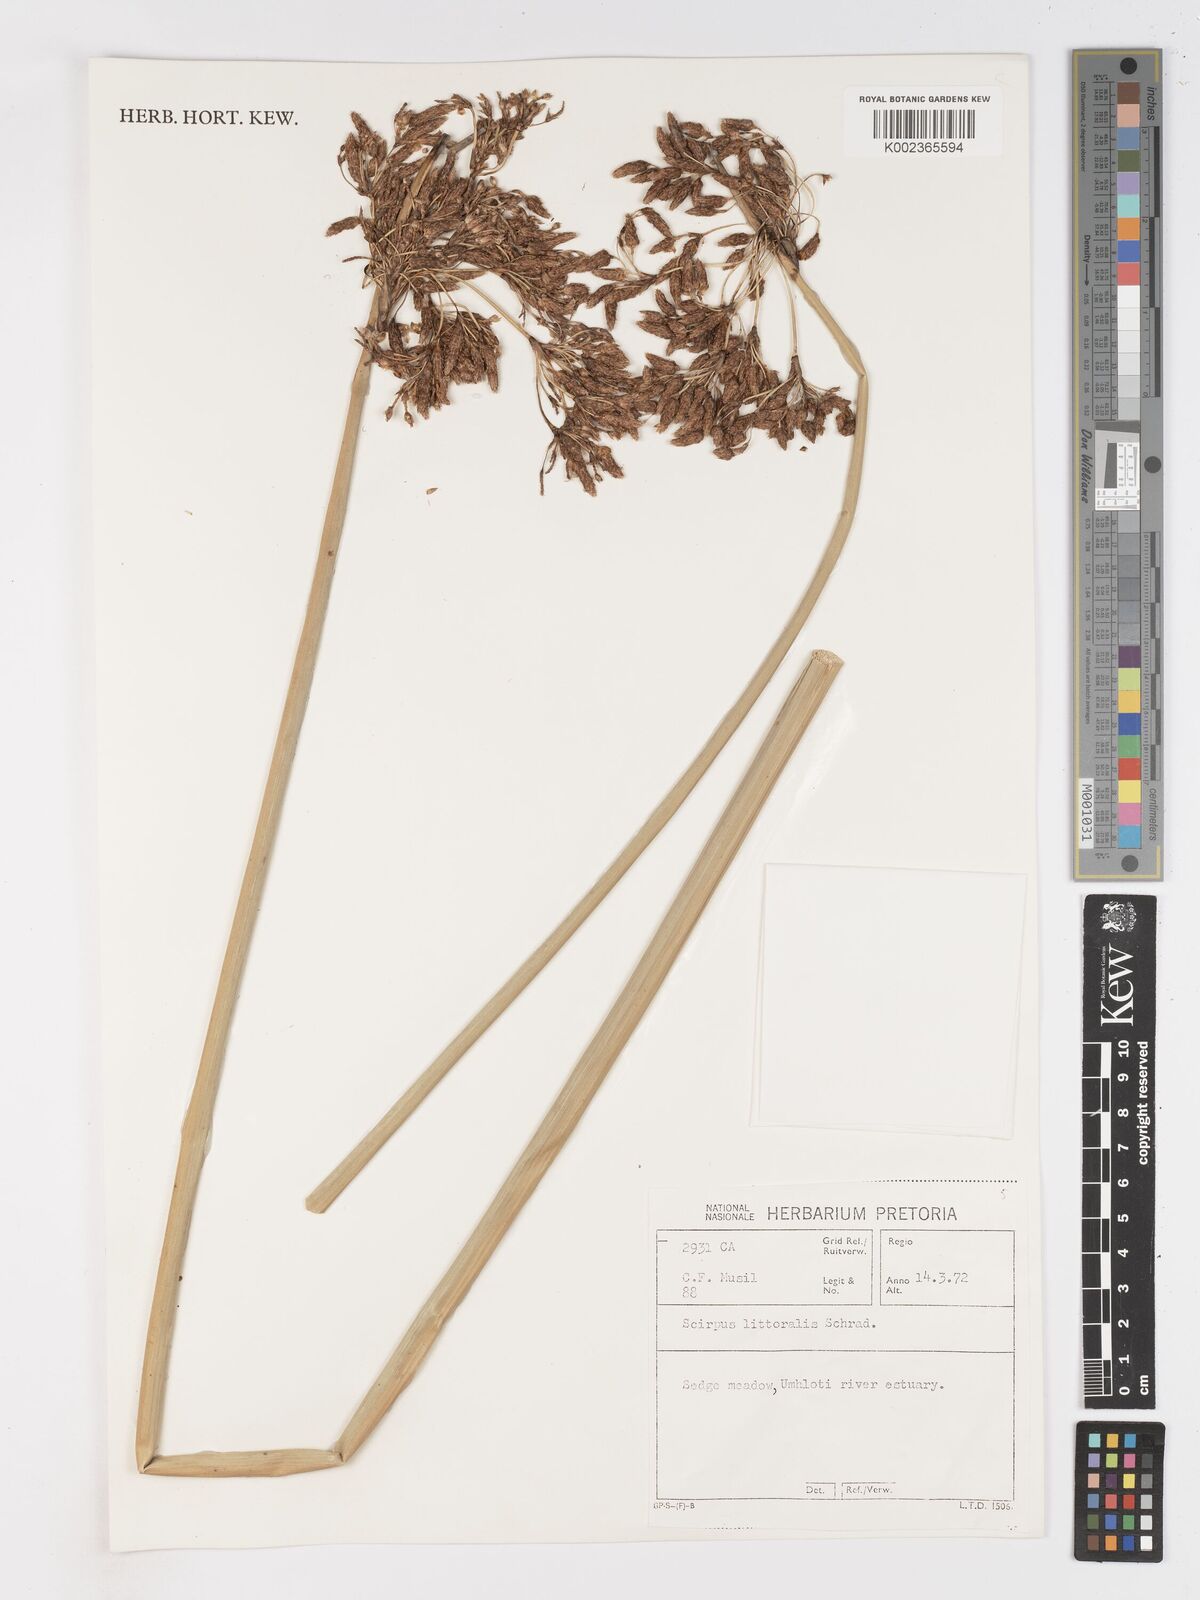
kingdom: Plantae
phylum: Tracheophyta
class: Liliopsida
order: Poales
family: Cyperaceae
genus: Schoenoplectus
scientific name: Schoenoplectus
